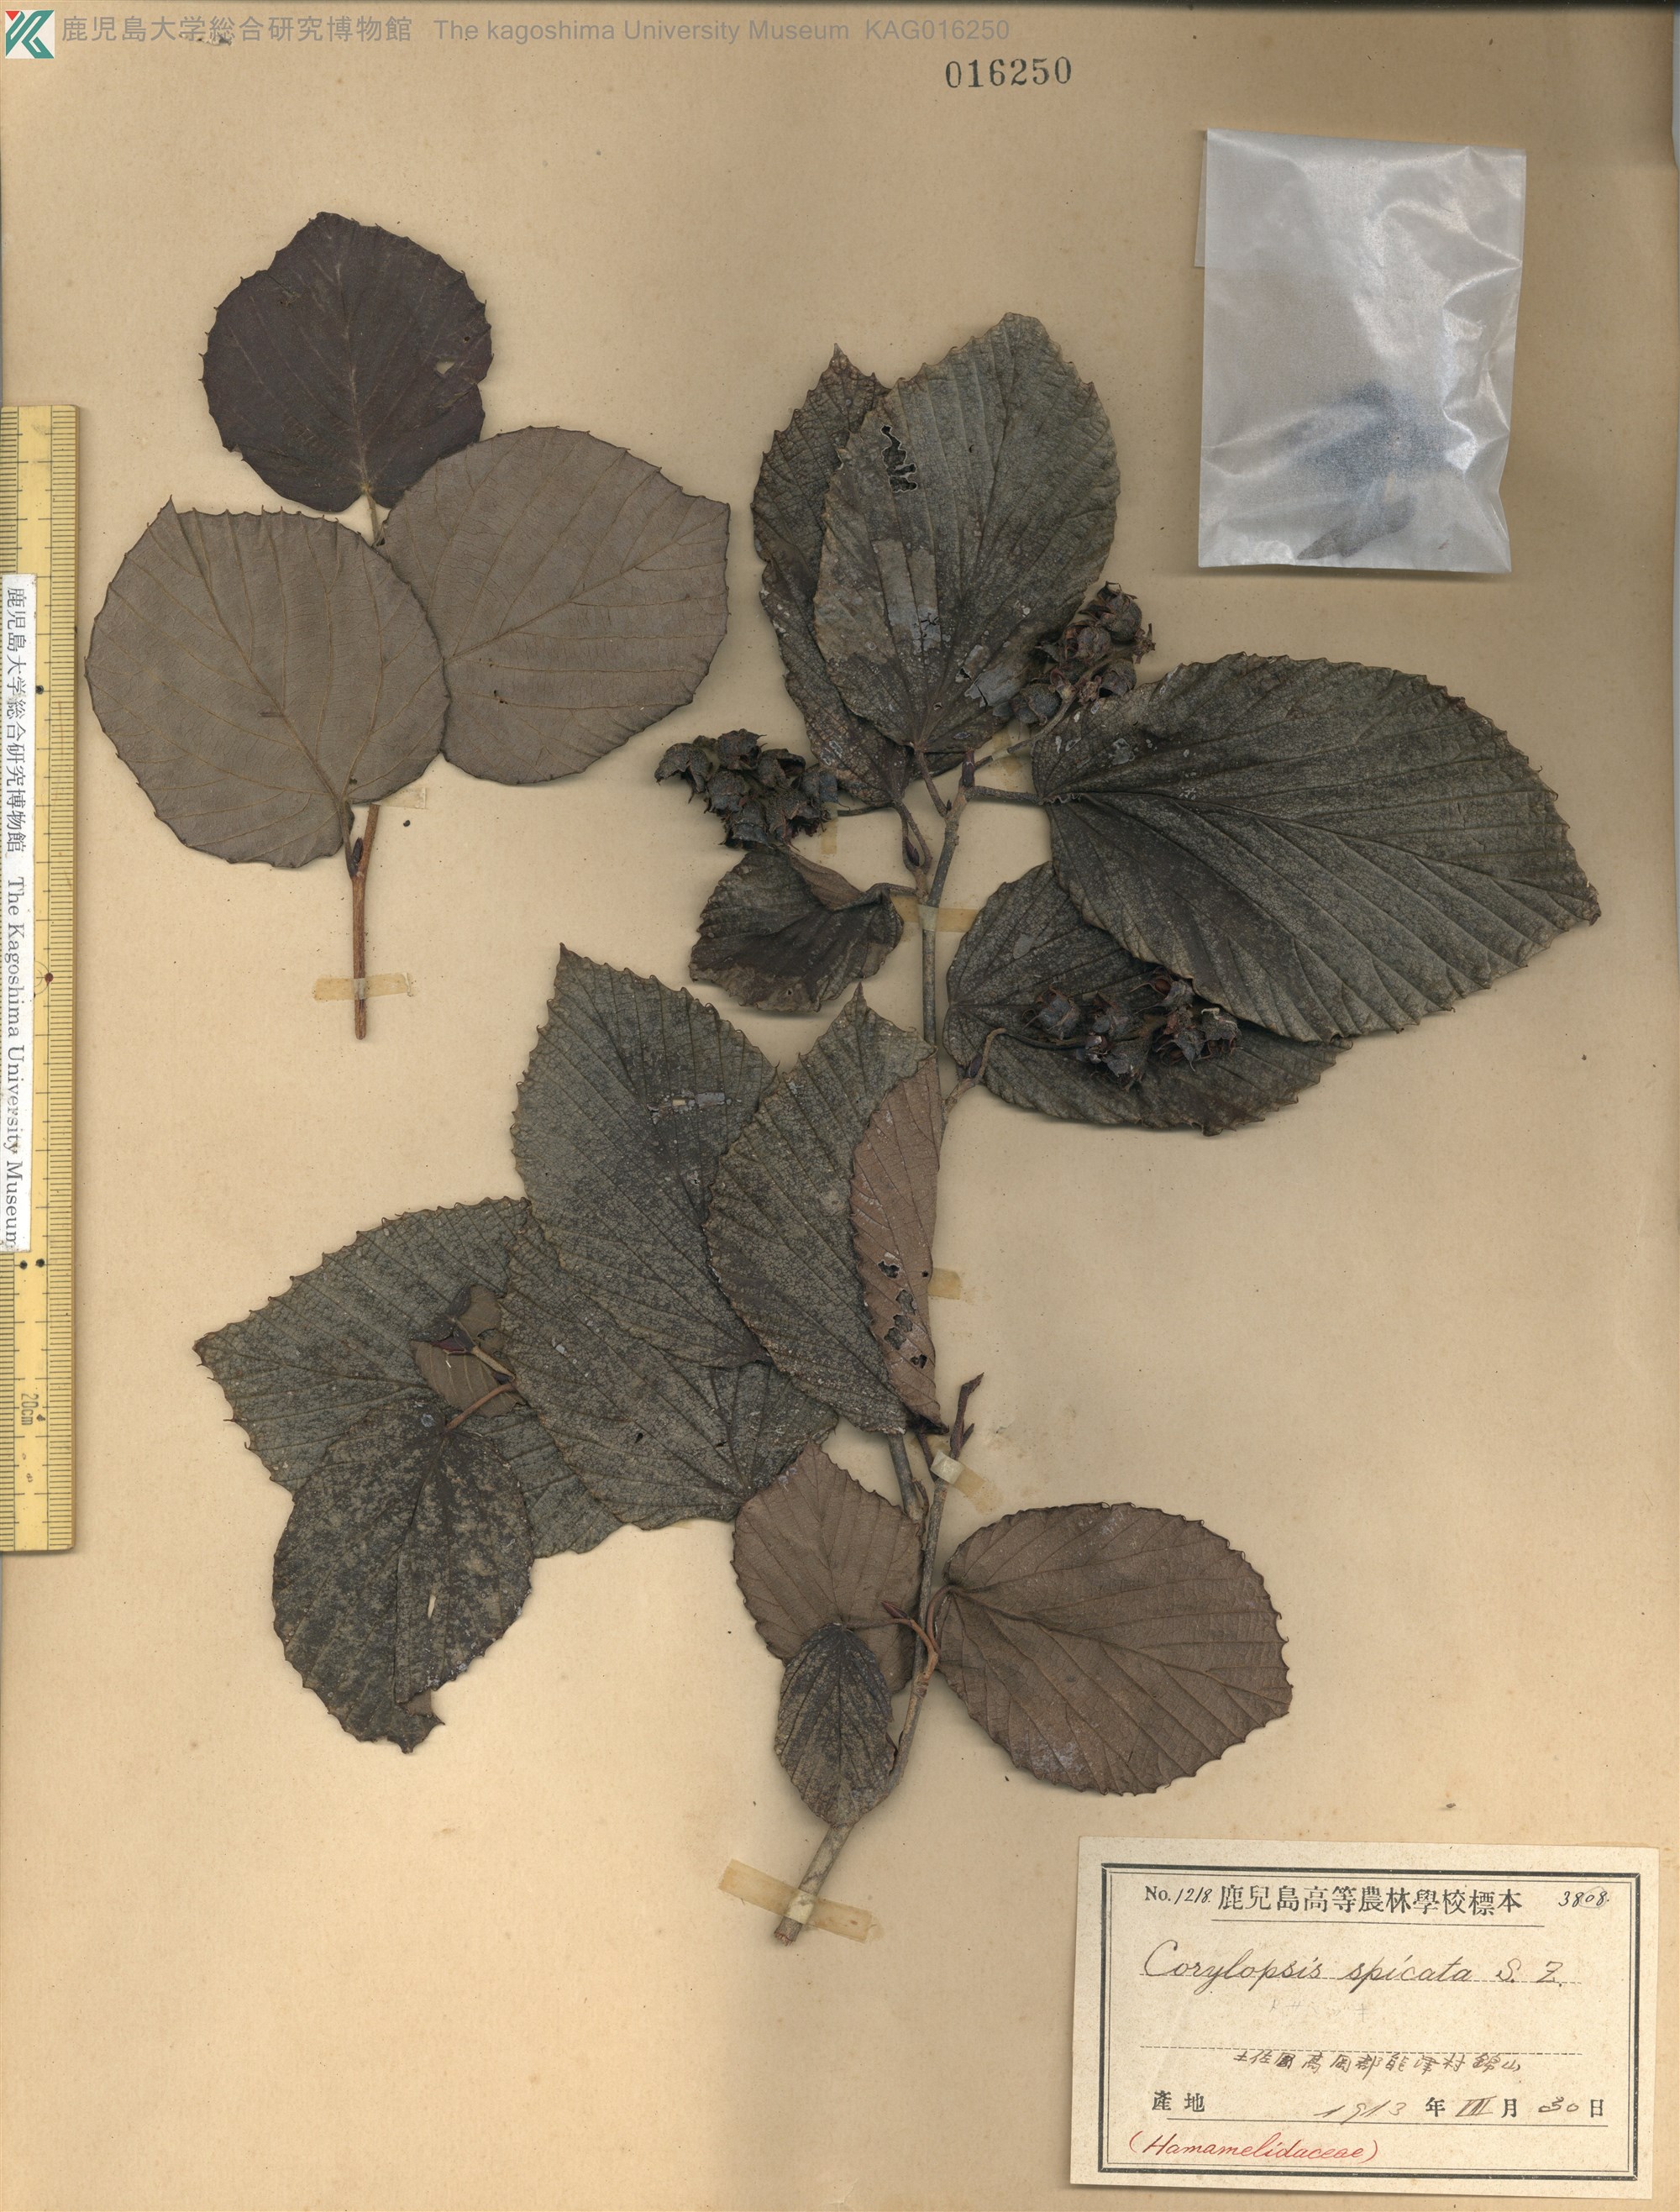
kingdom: Plantae
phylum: Tracheophyta
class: Magnoliopsida
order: Saxifragales
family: Hamamelidaceae
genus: Corylopsis
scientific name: Corylopsis spicata
